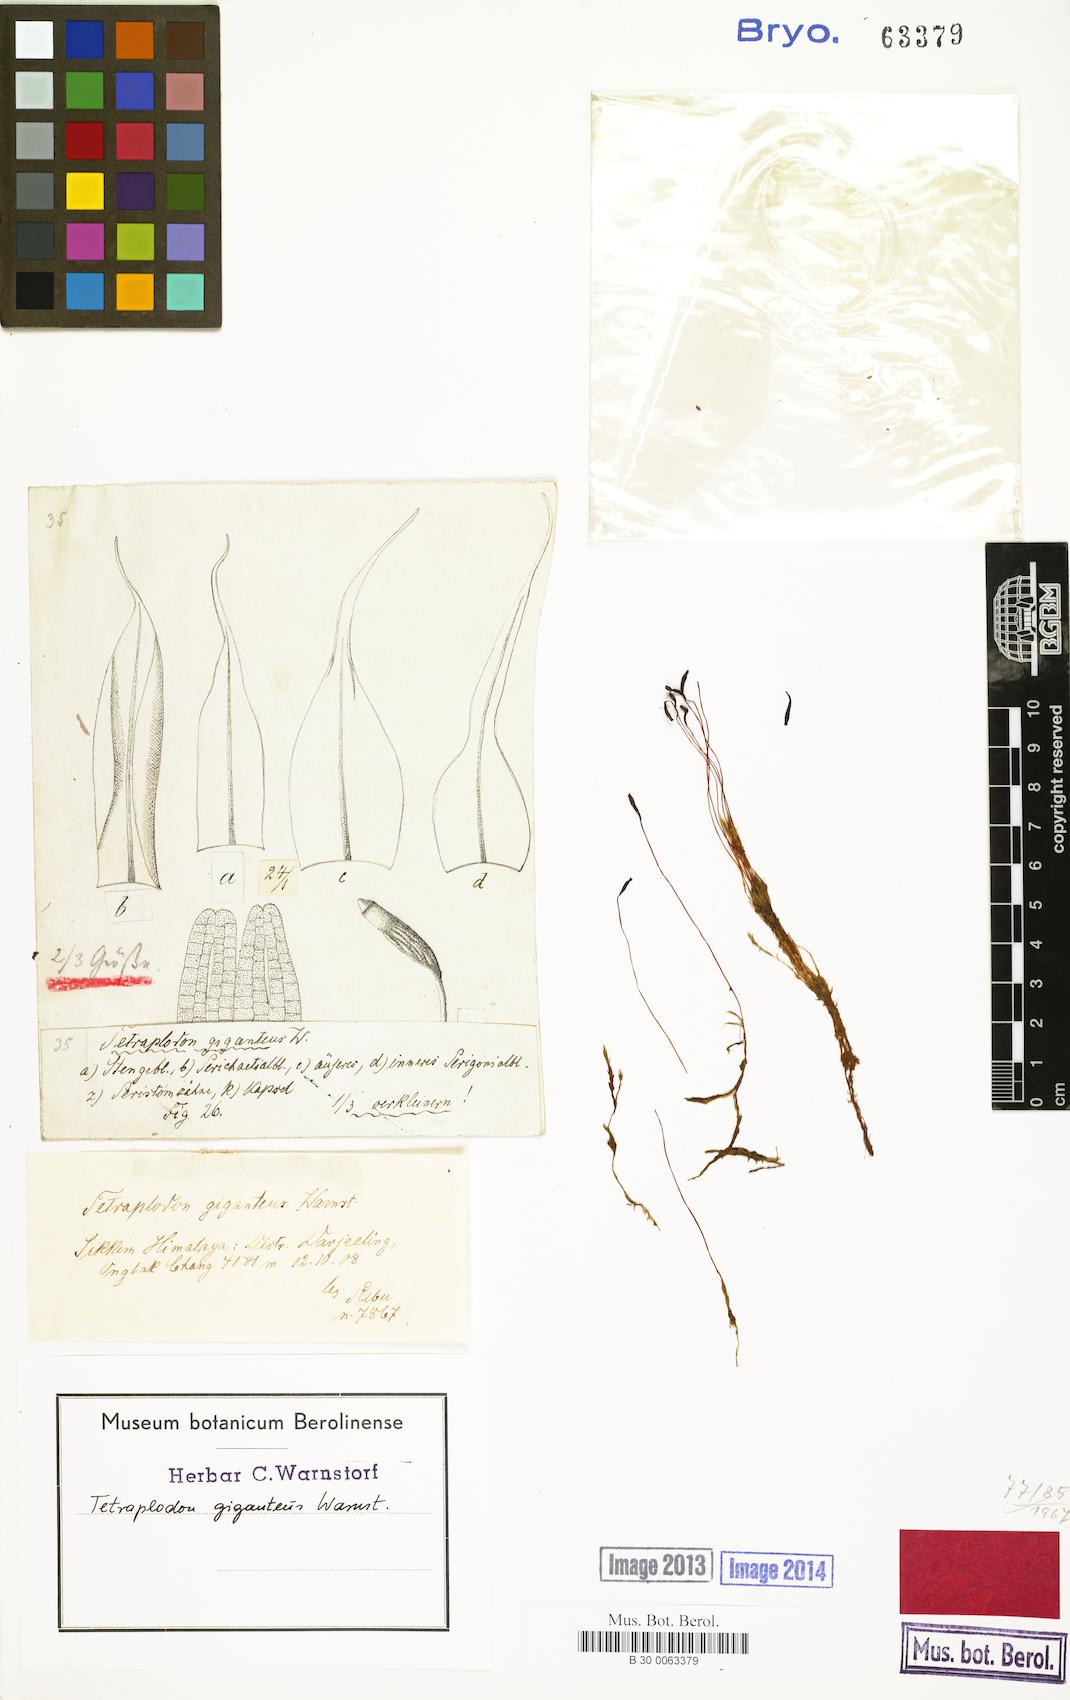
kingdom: Plantae
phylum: Bryophyta
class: Bryopsida
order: Splachnales
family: Splachnaceae
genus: Tetraplodon
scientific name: Tetraplodon mnioides
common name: Entire-leaved nitrogen moss
